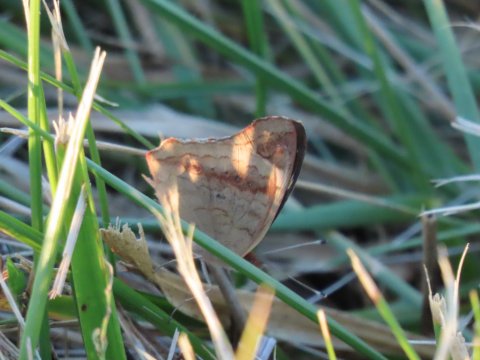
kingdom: Animalia
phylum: Arthropoda
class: Insecta
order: Lepidoptera
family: Nymphalidae
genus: Junonia
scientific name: Junonia coenia
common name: Common Buckeye
